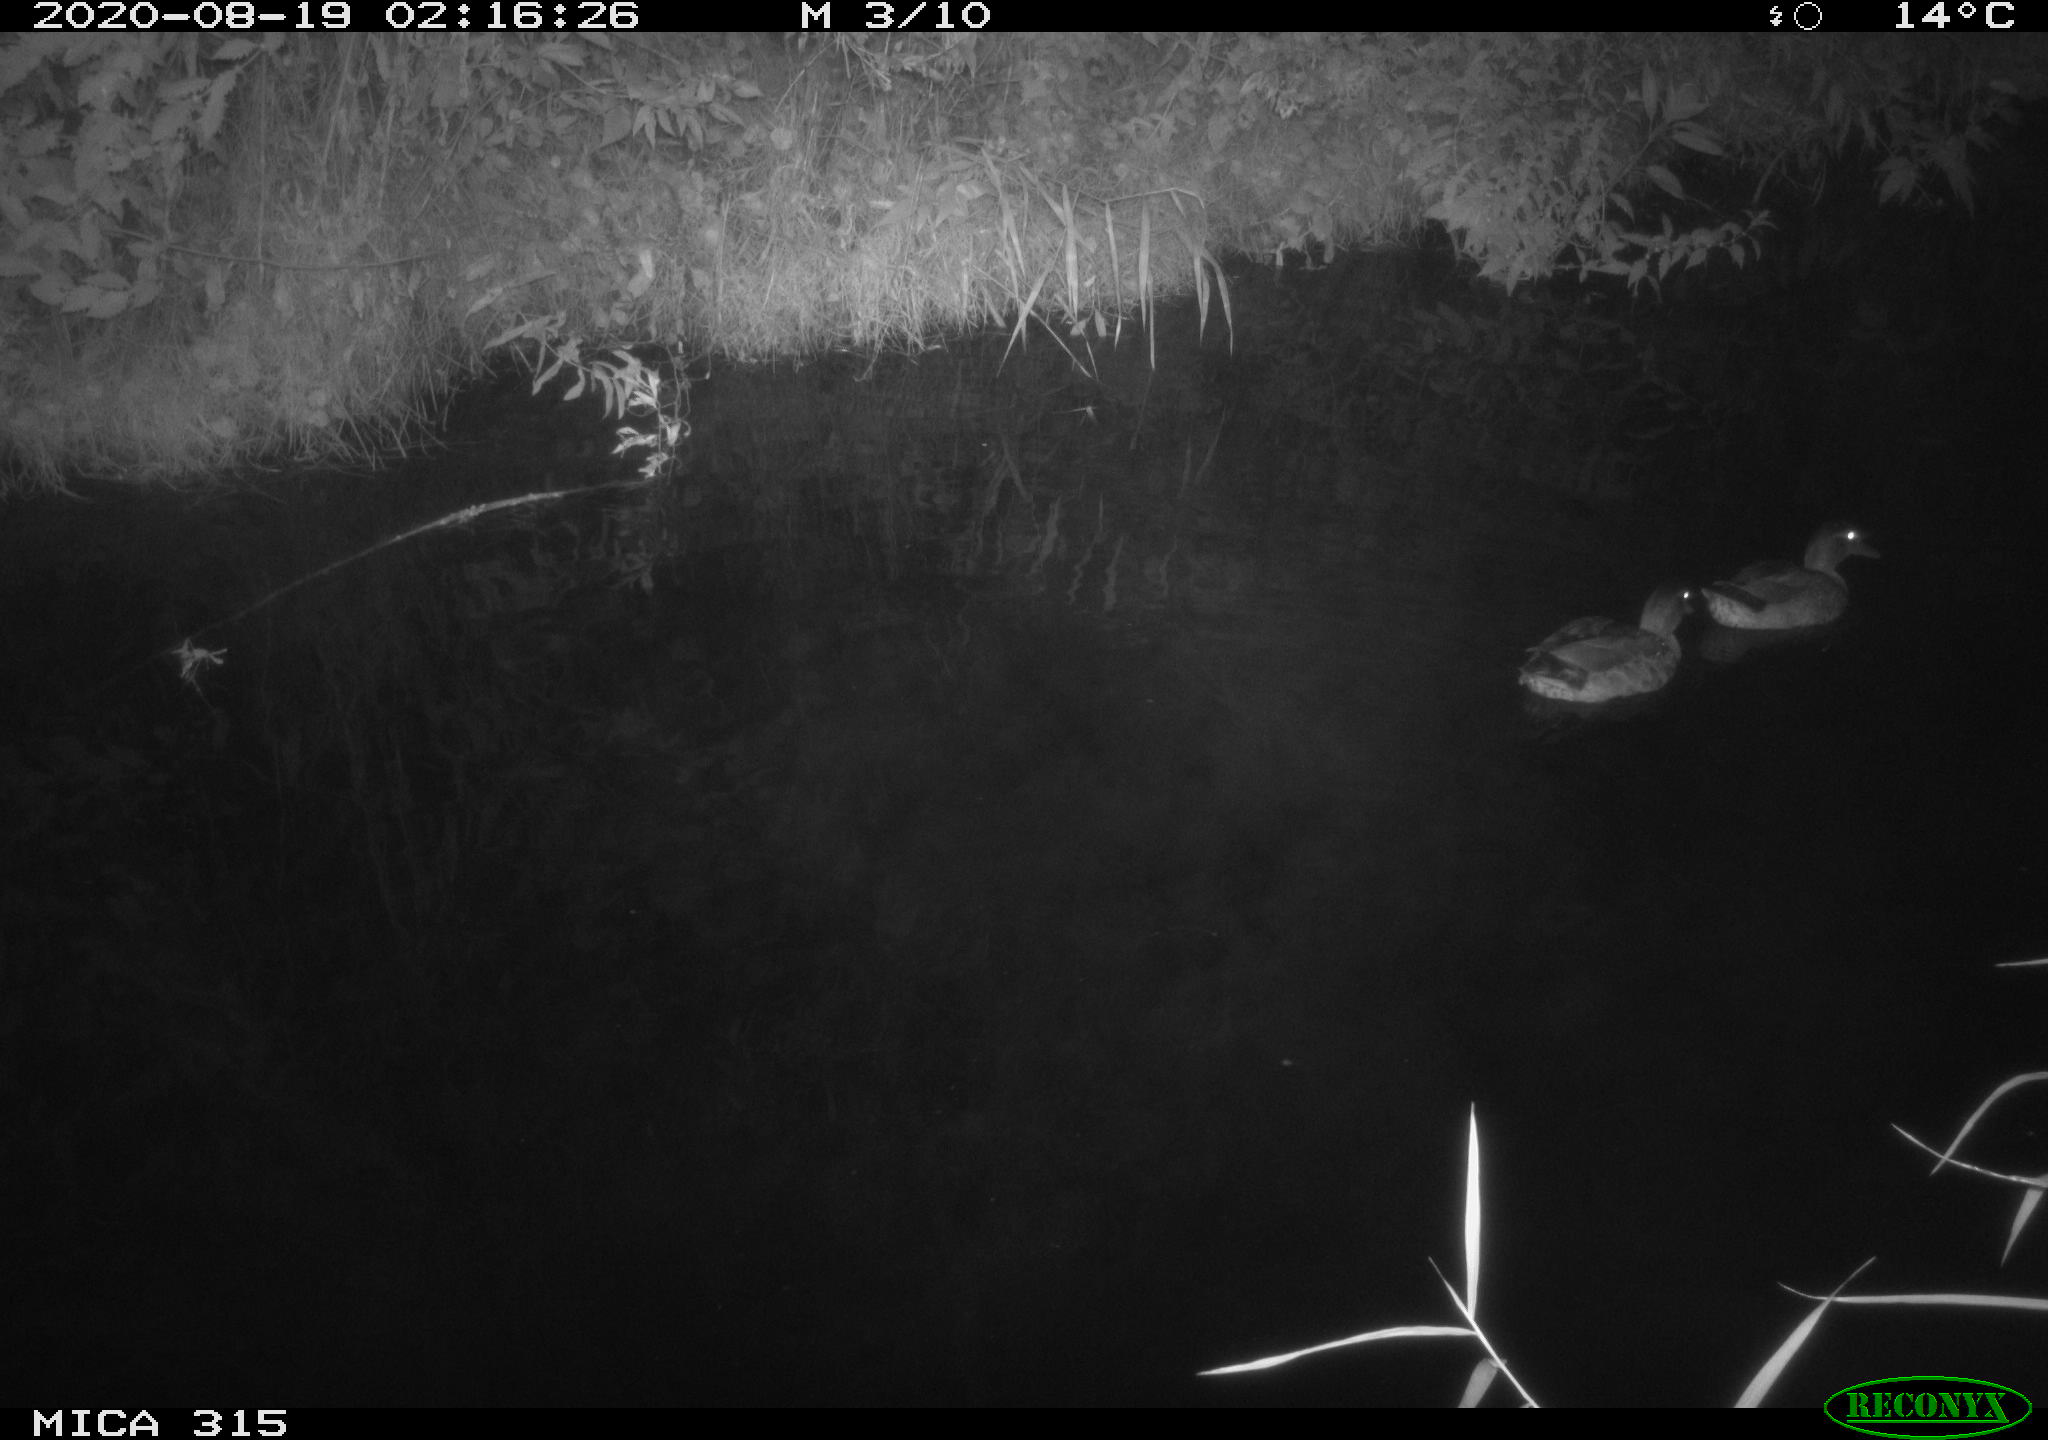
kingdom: Animalia
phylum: Chordata
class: Aves
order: Anseriformes
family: Anatidae
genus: Anas
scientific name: Anas platyrhynchos
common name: Mallard
